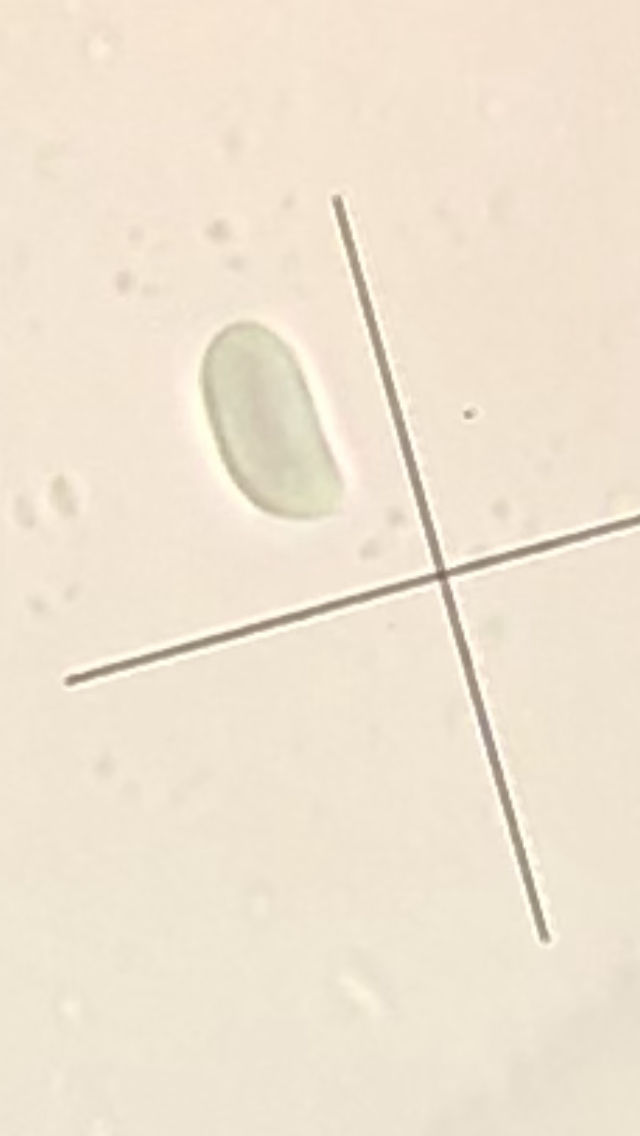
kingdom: Fungi
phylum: Basidiomycota
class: Agaricomycetes
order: Polyporales
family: Irpicaceae
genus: Byssomerulius
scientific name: Byssomerulius corium
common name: læder-åresvamp
